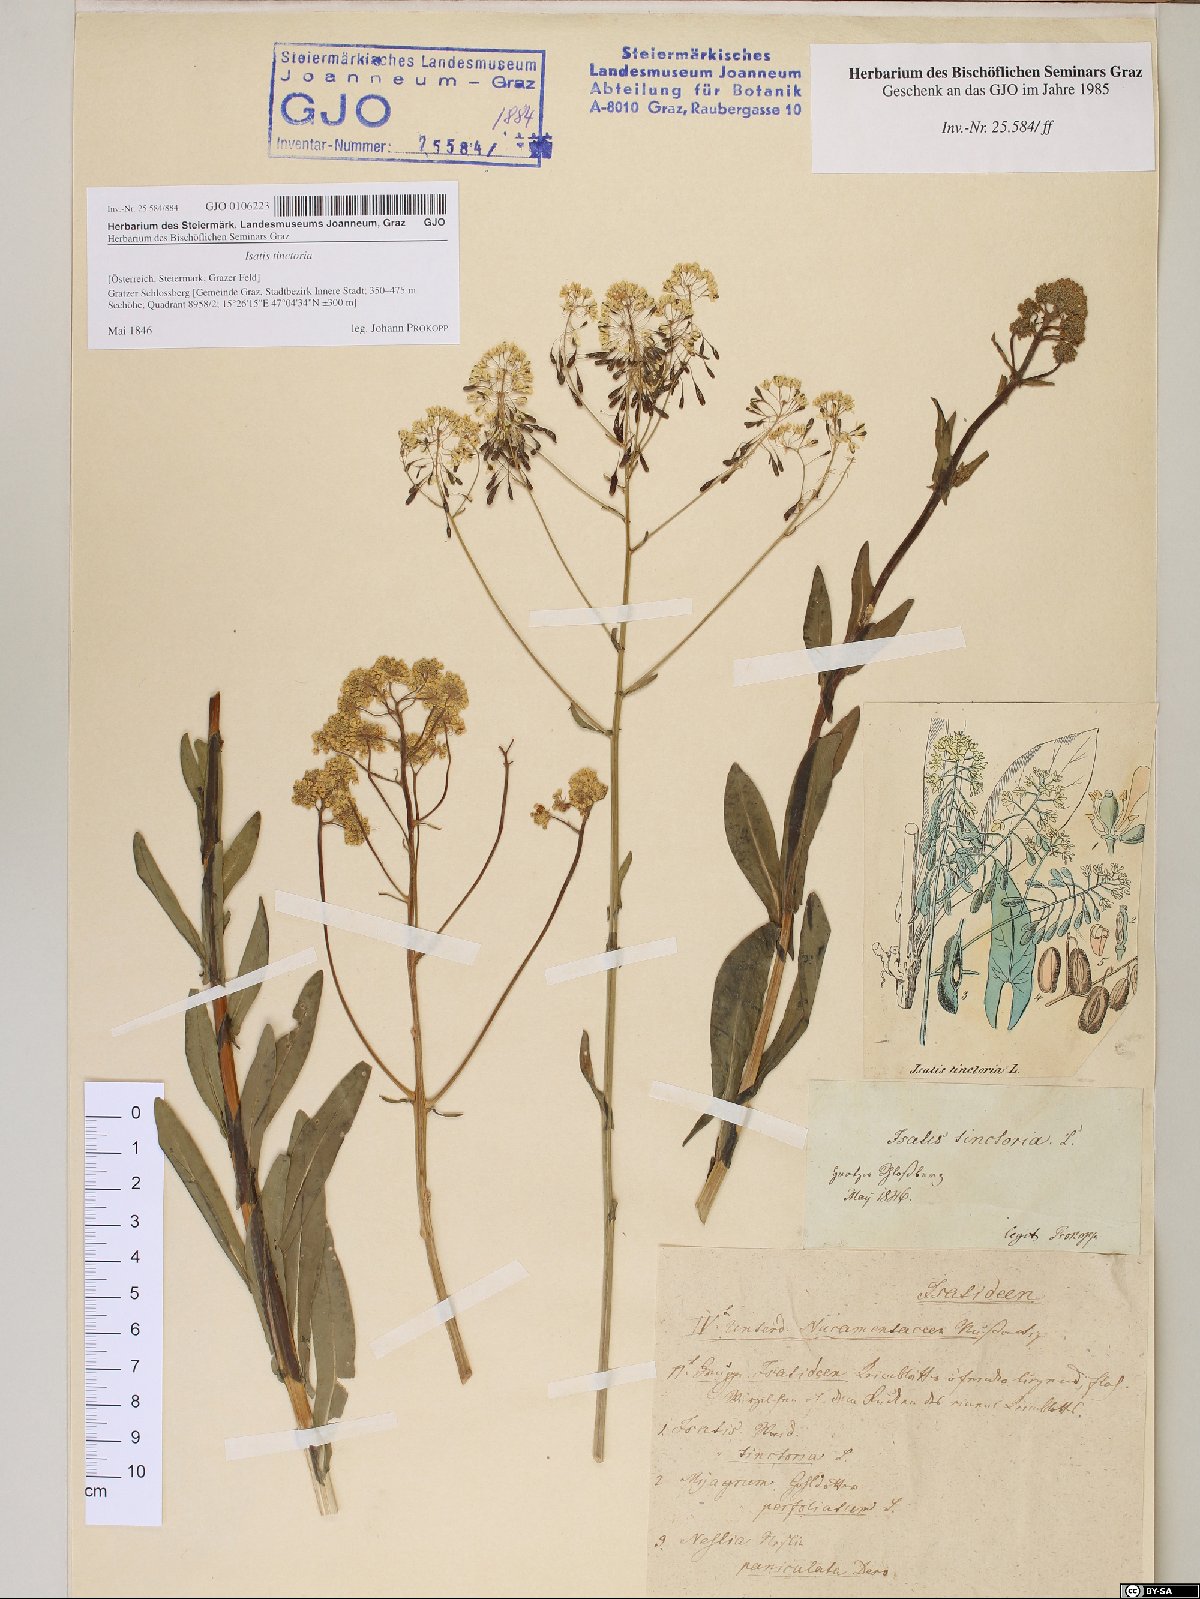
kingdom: Plantae
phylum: Tracheophyta
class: Magnoliopsida
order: Brassicales
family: Brassicaceae
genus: Isatis
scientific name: Isatis tinctoria
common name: Woad
